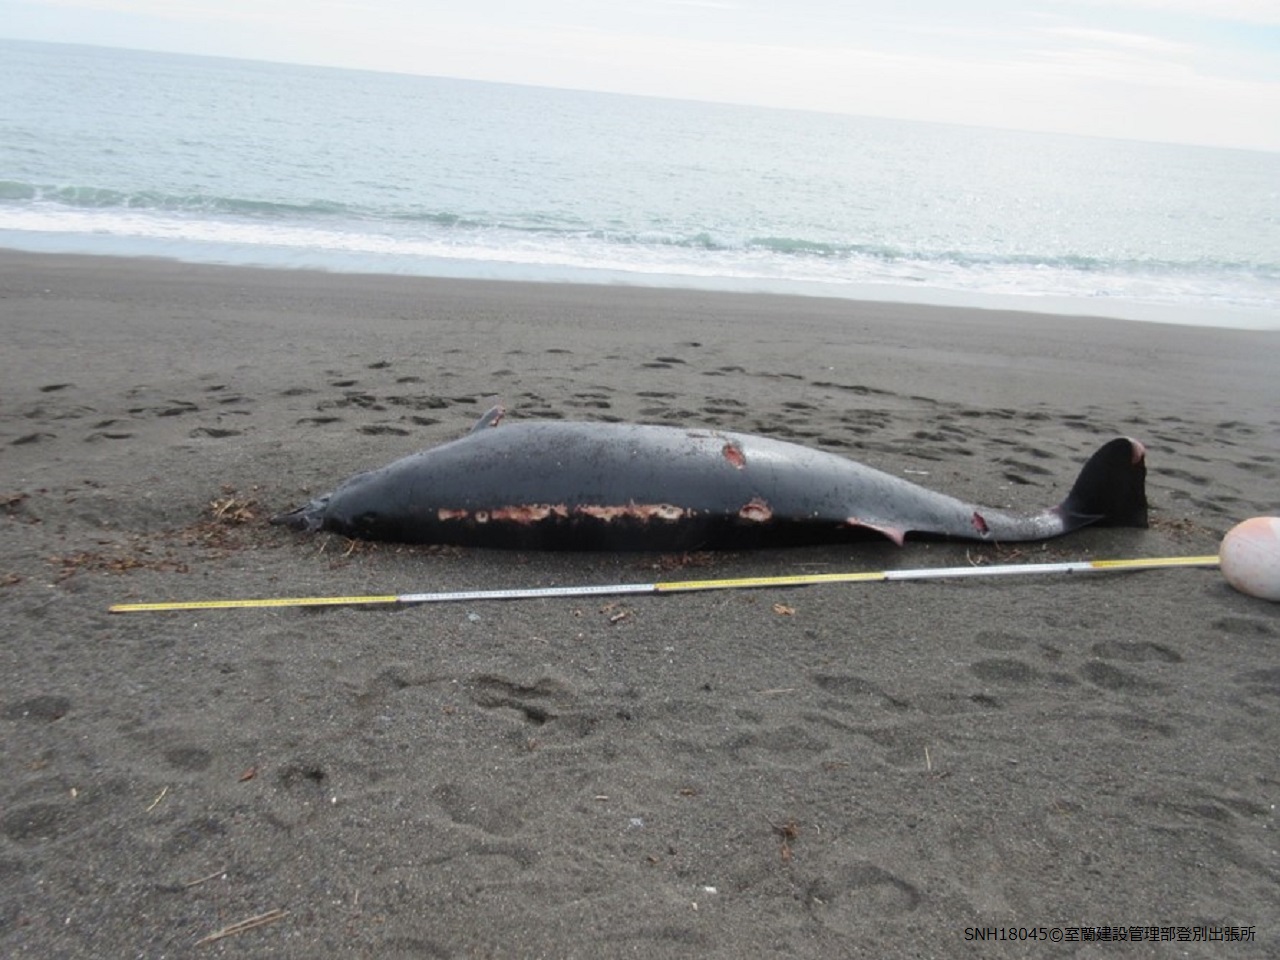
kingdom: Animalia
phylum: Chordata
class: Mammalia
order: Cetacea
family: Hyperoodontidae
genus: Mesoplodon
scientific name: Mesoplodon stejnegeri
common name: Stejneger's beaked whale
